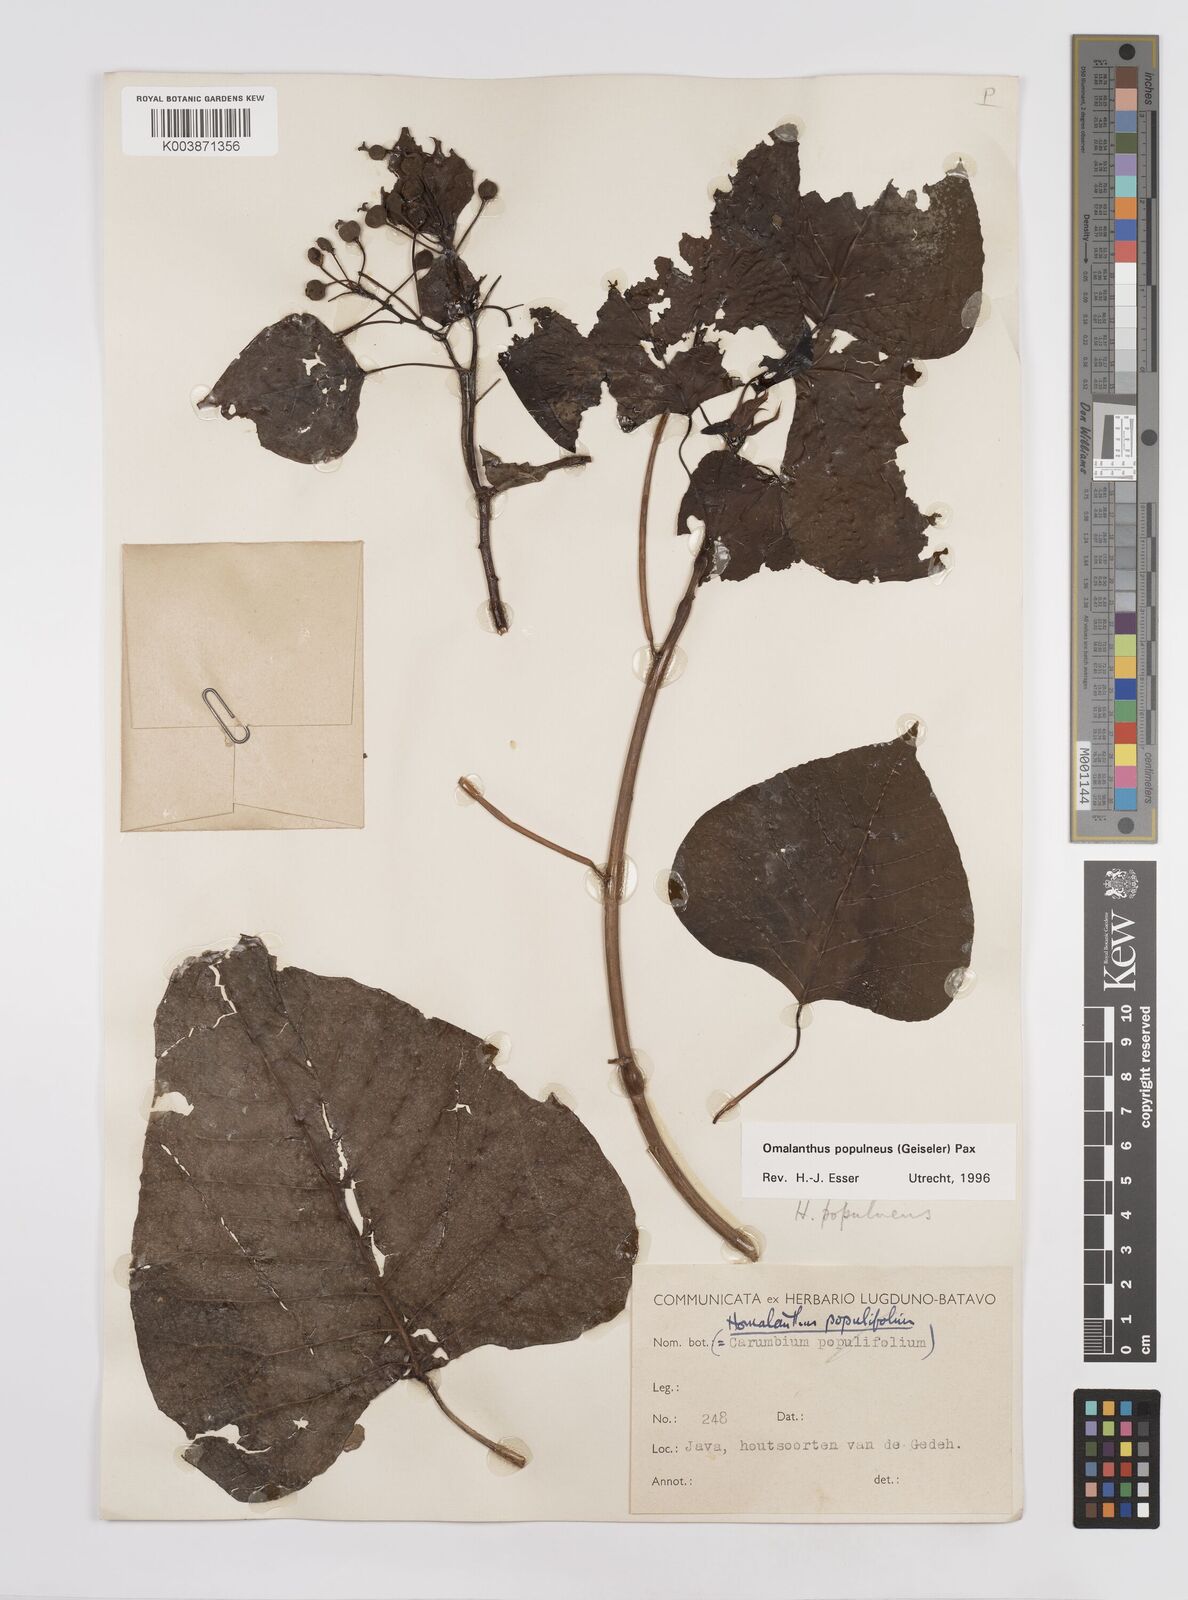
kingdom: Plantae
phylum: Tracheophyta
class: Magnoliopsida
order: Malpighiales
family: Euphorbiaceae
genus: Homalanthus
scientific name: Homalanthus populneus
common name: Spurge
